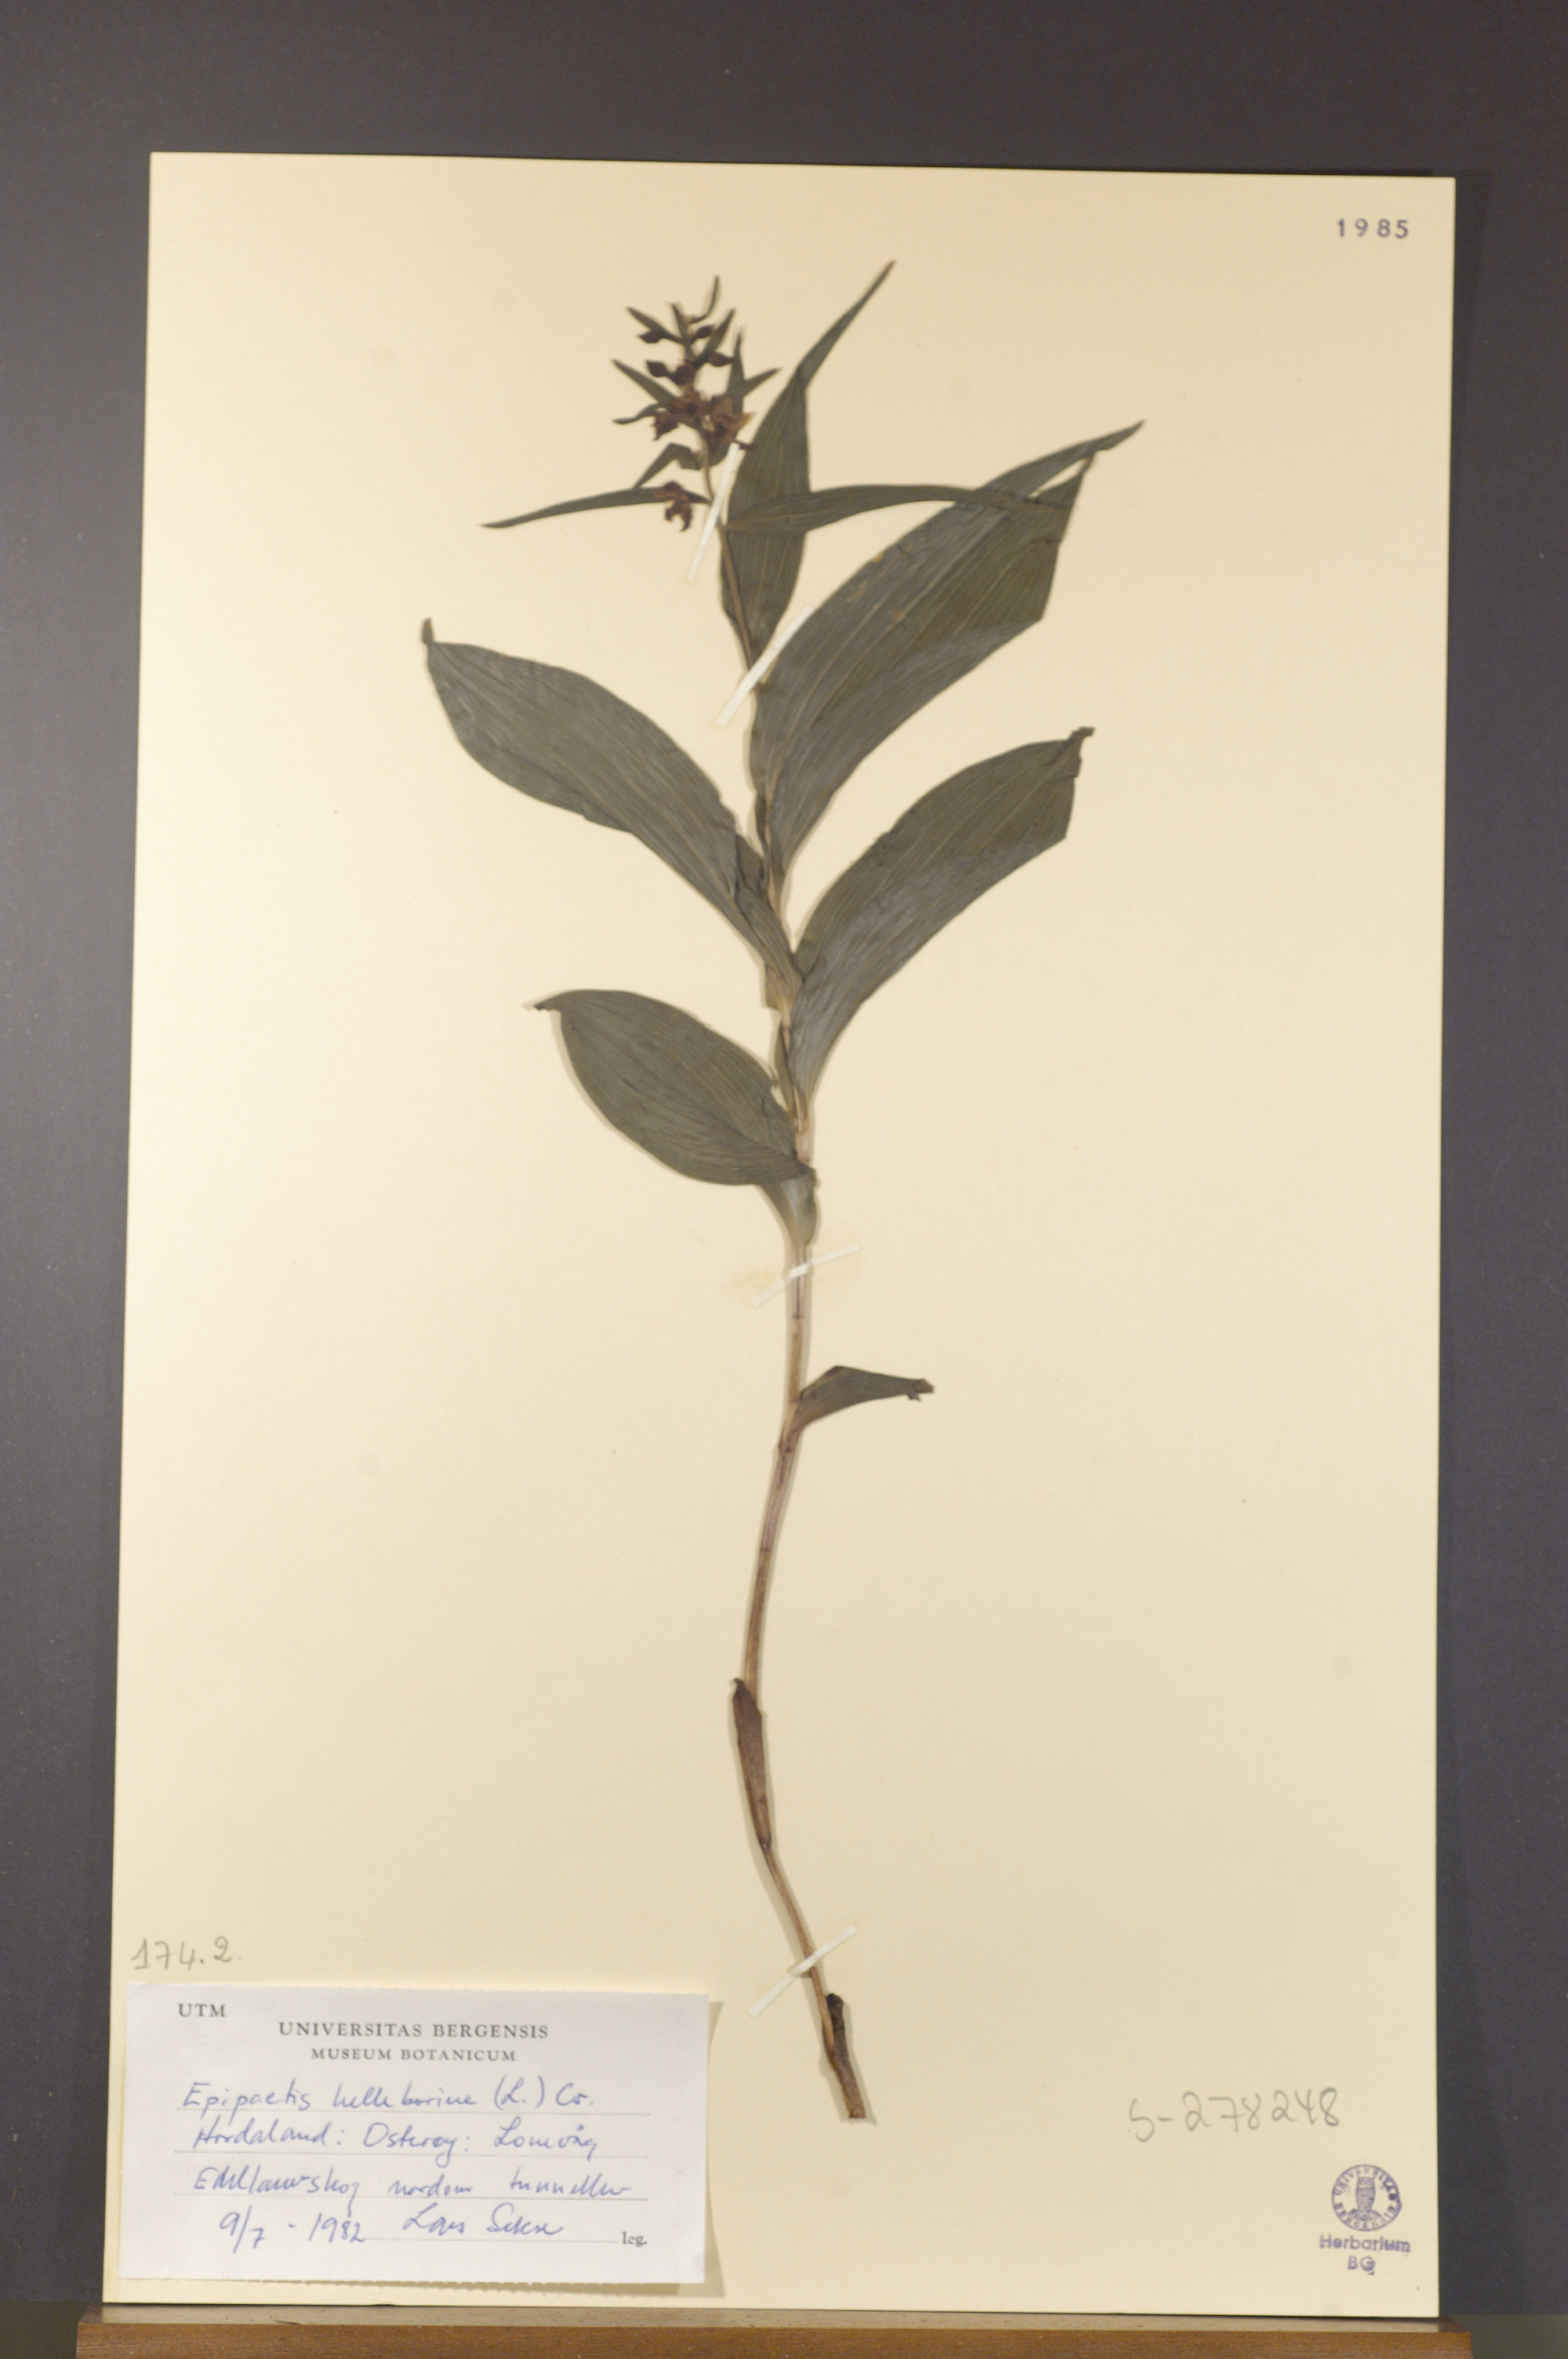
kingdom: Plantae
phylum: Tracheophyta
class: Liliopsida
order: Asparagales
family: Orchidaceae
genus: Epipactis
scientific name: Epipactis helleborine
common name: Broad-leaved helleborine
